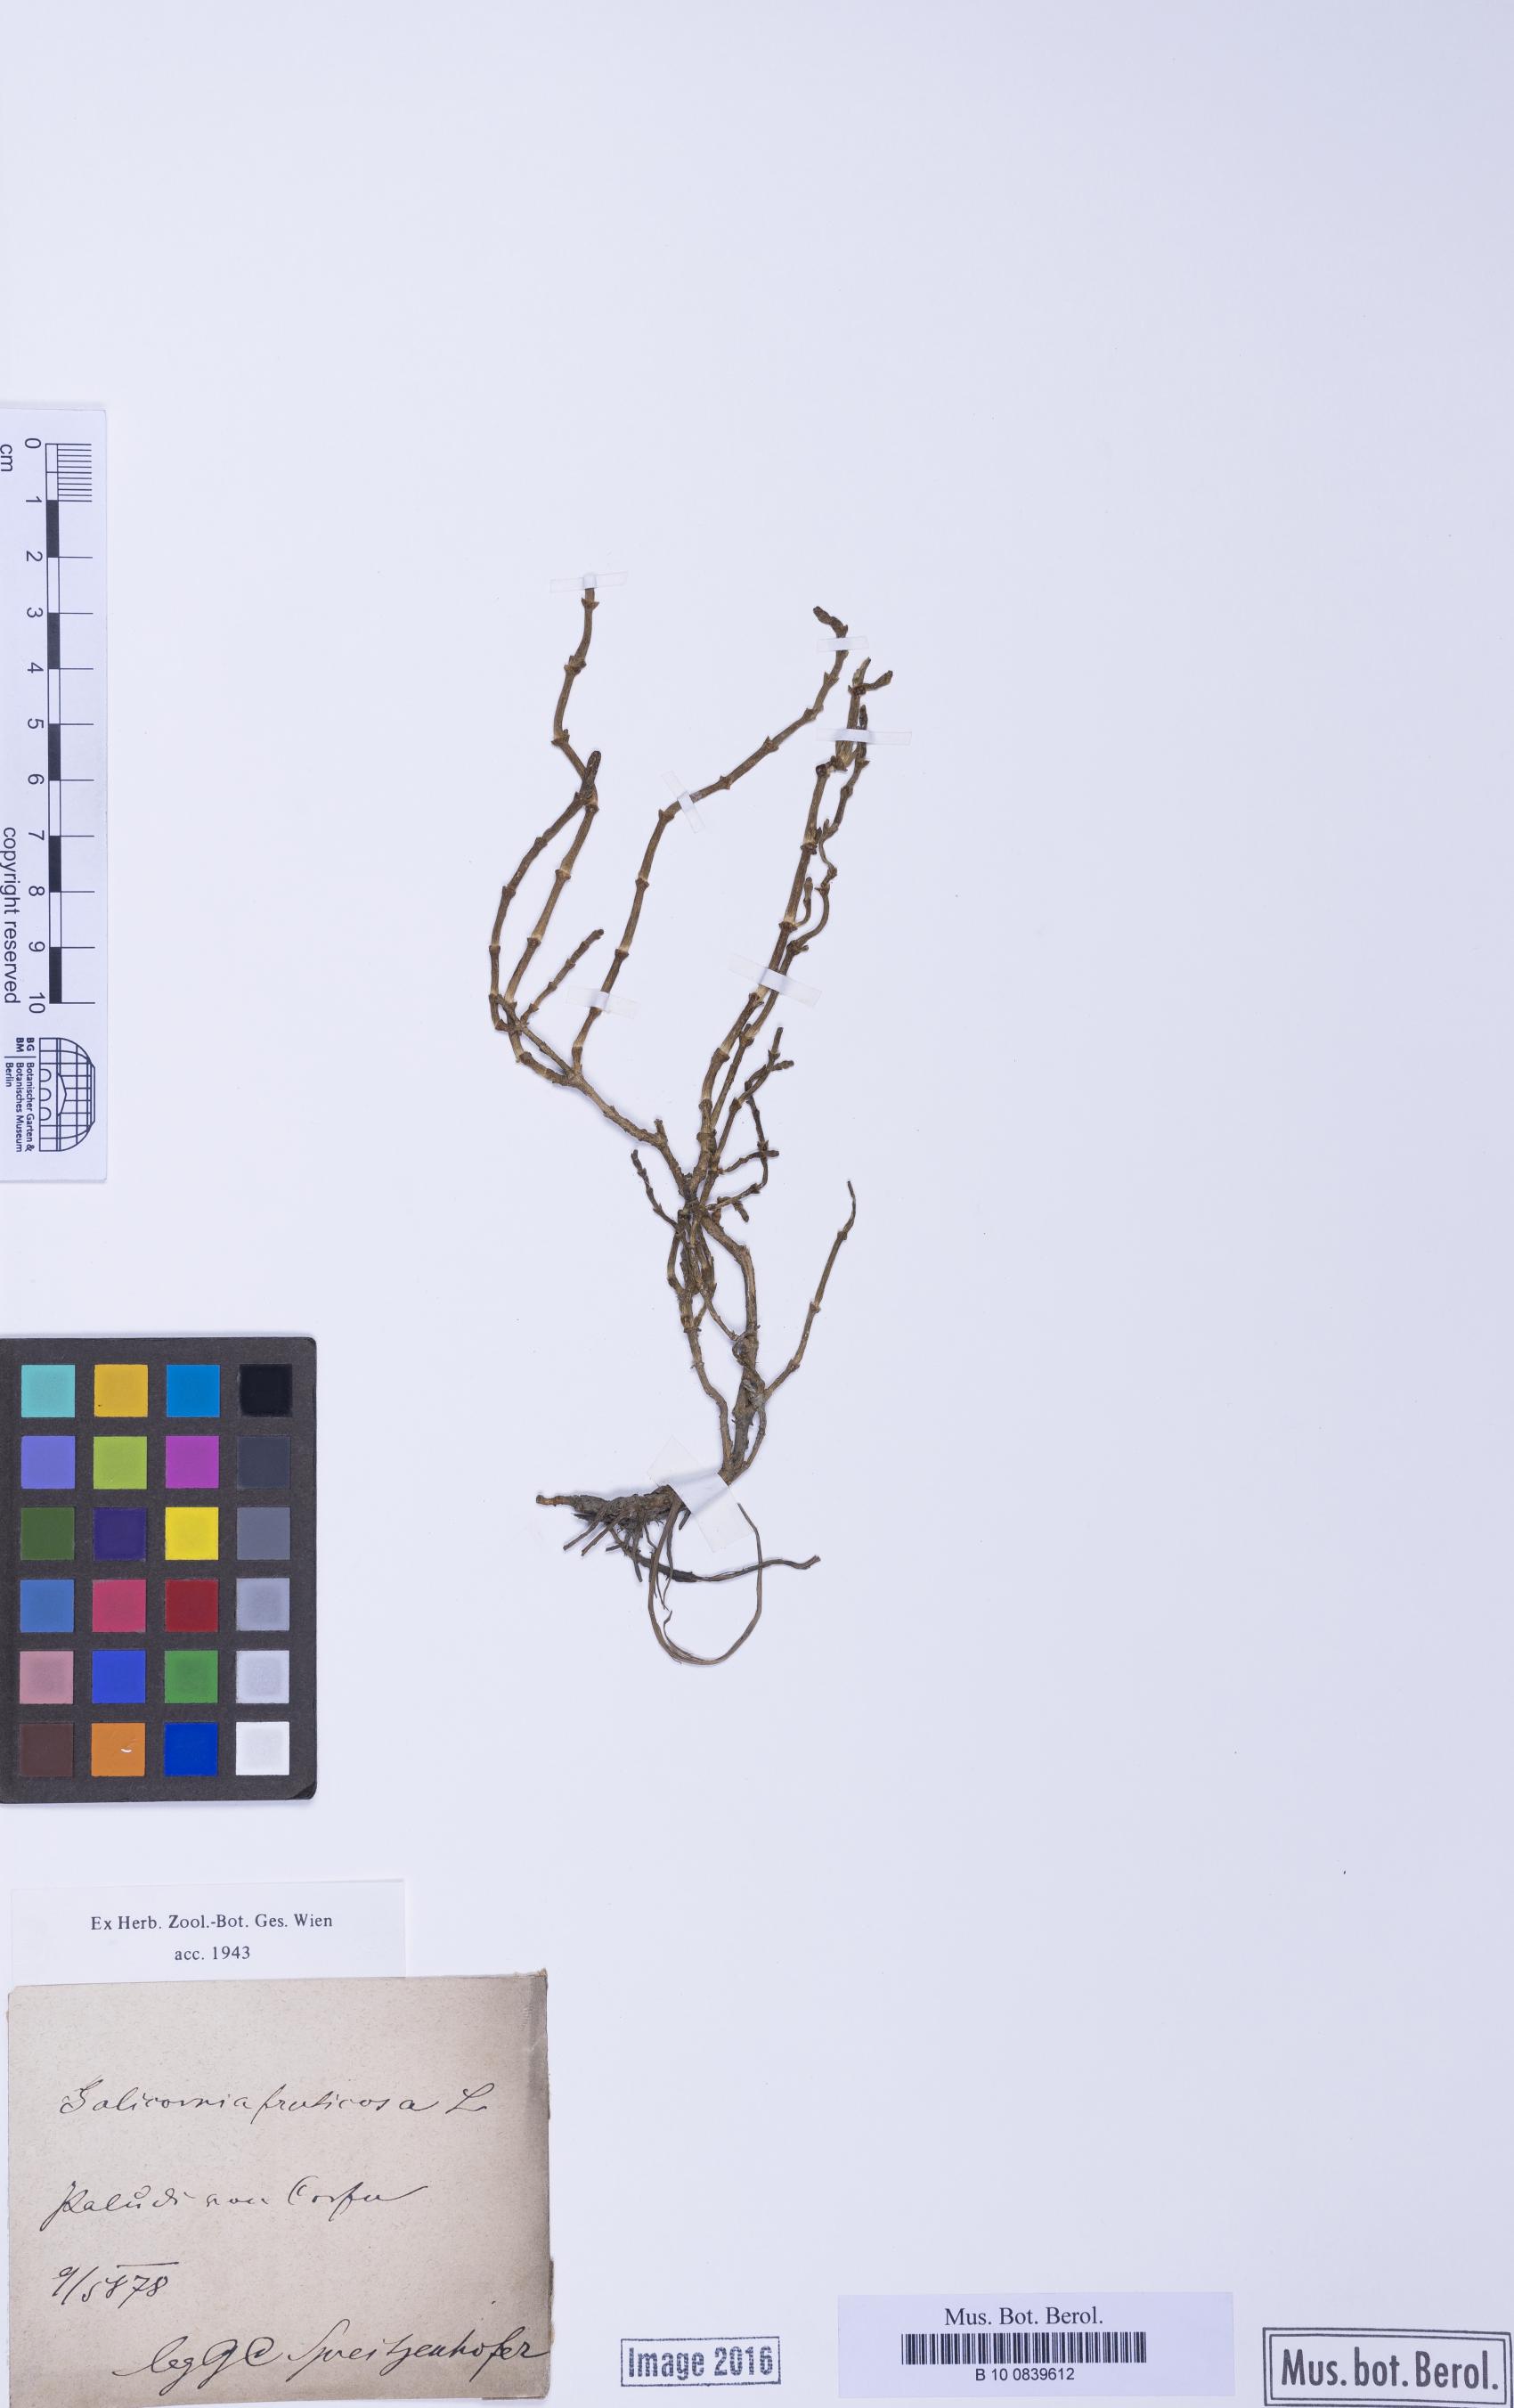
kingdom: Plantae
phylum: Tracheophyta
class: Magnoliopsida
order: Caryophyllales
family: Amaranthaceae
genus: Salicornia
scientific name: Salicornia perennis
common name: Chicken claws
